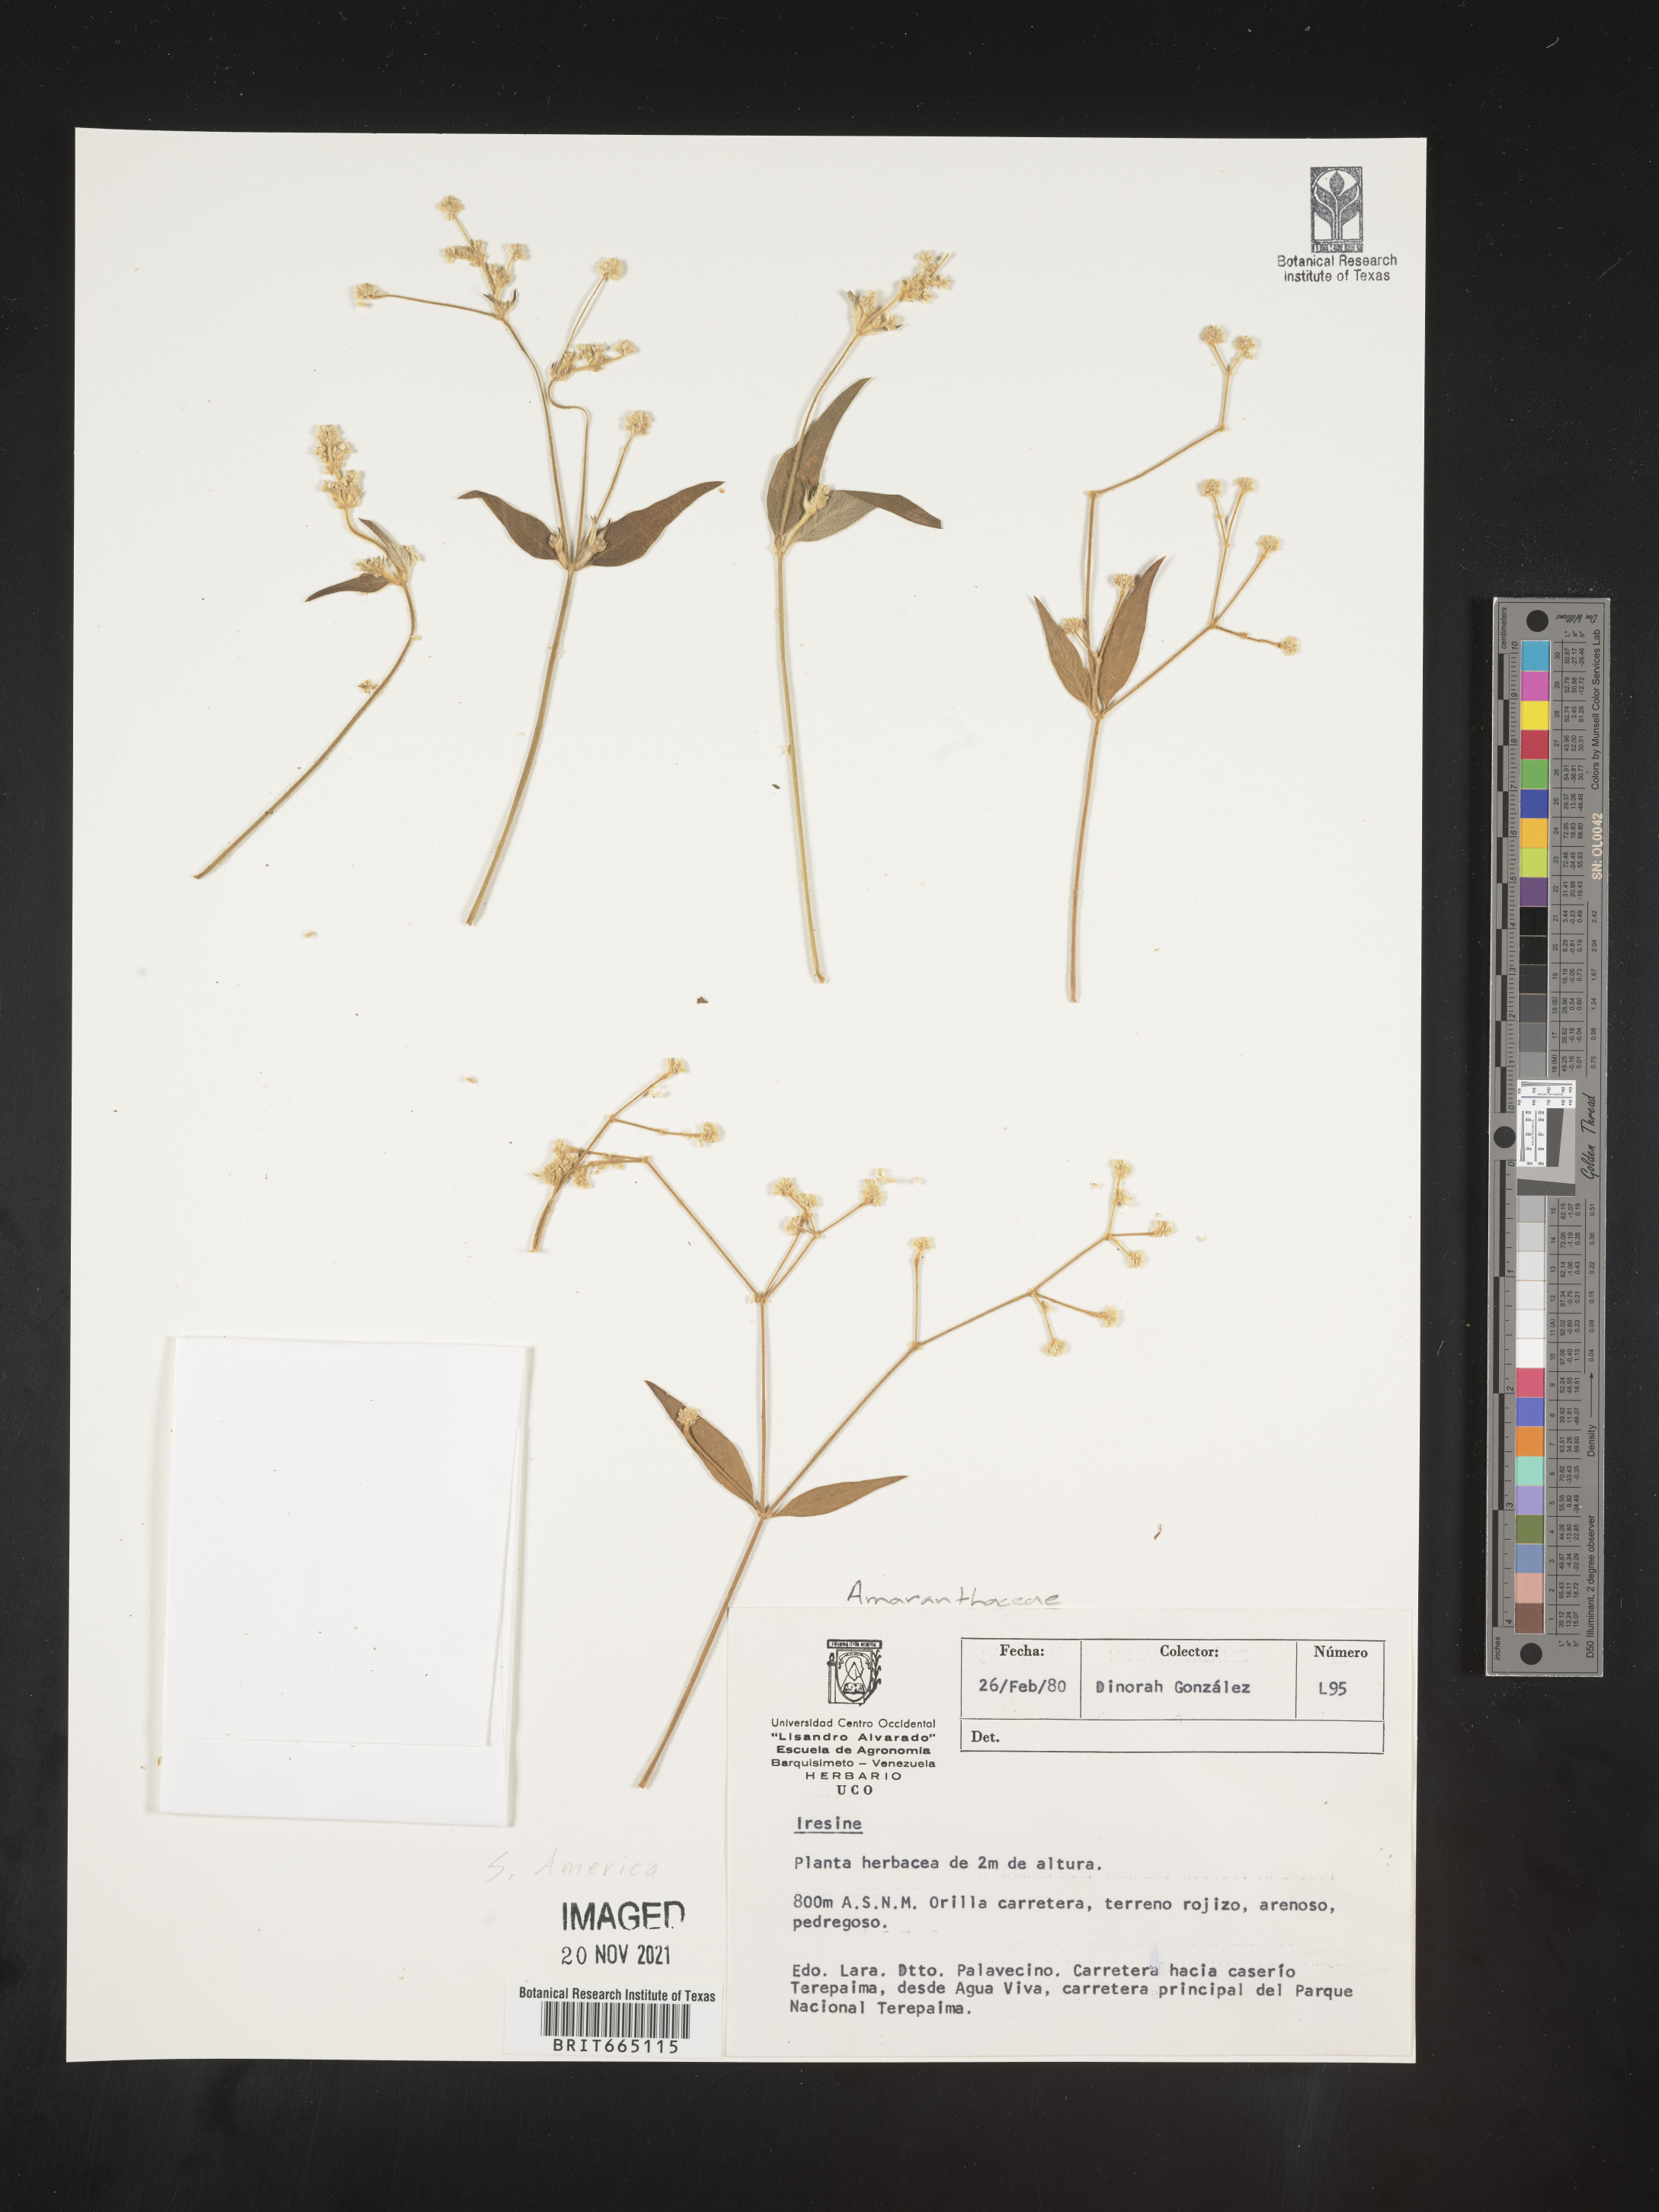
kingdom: Plantae
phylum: Tracheophyta
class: Magnoliopsida
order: Caryophyllales
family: Amaranthaceae
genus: Iresine
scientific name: Iresine
